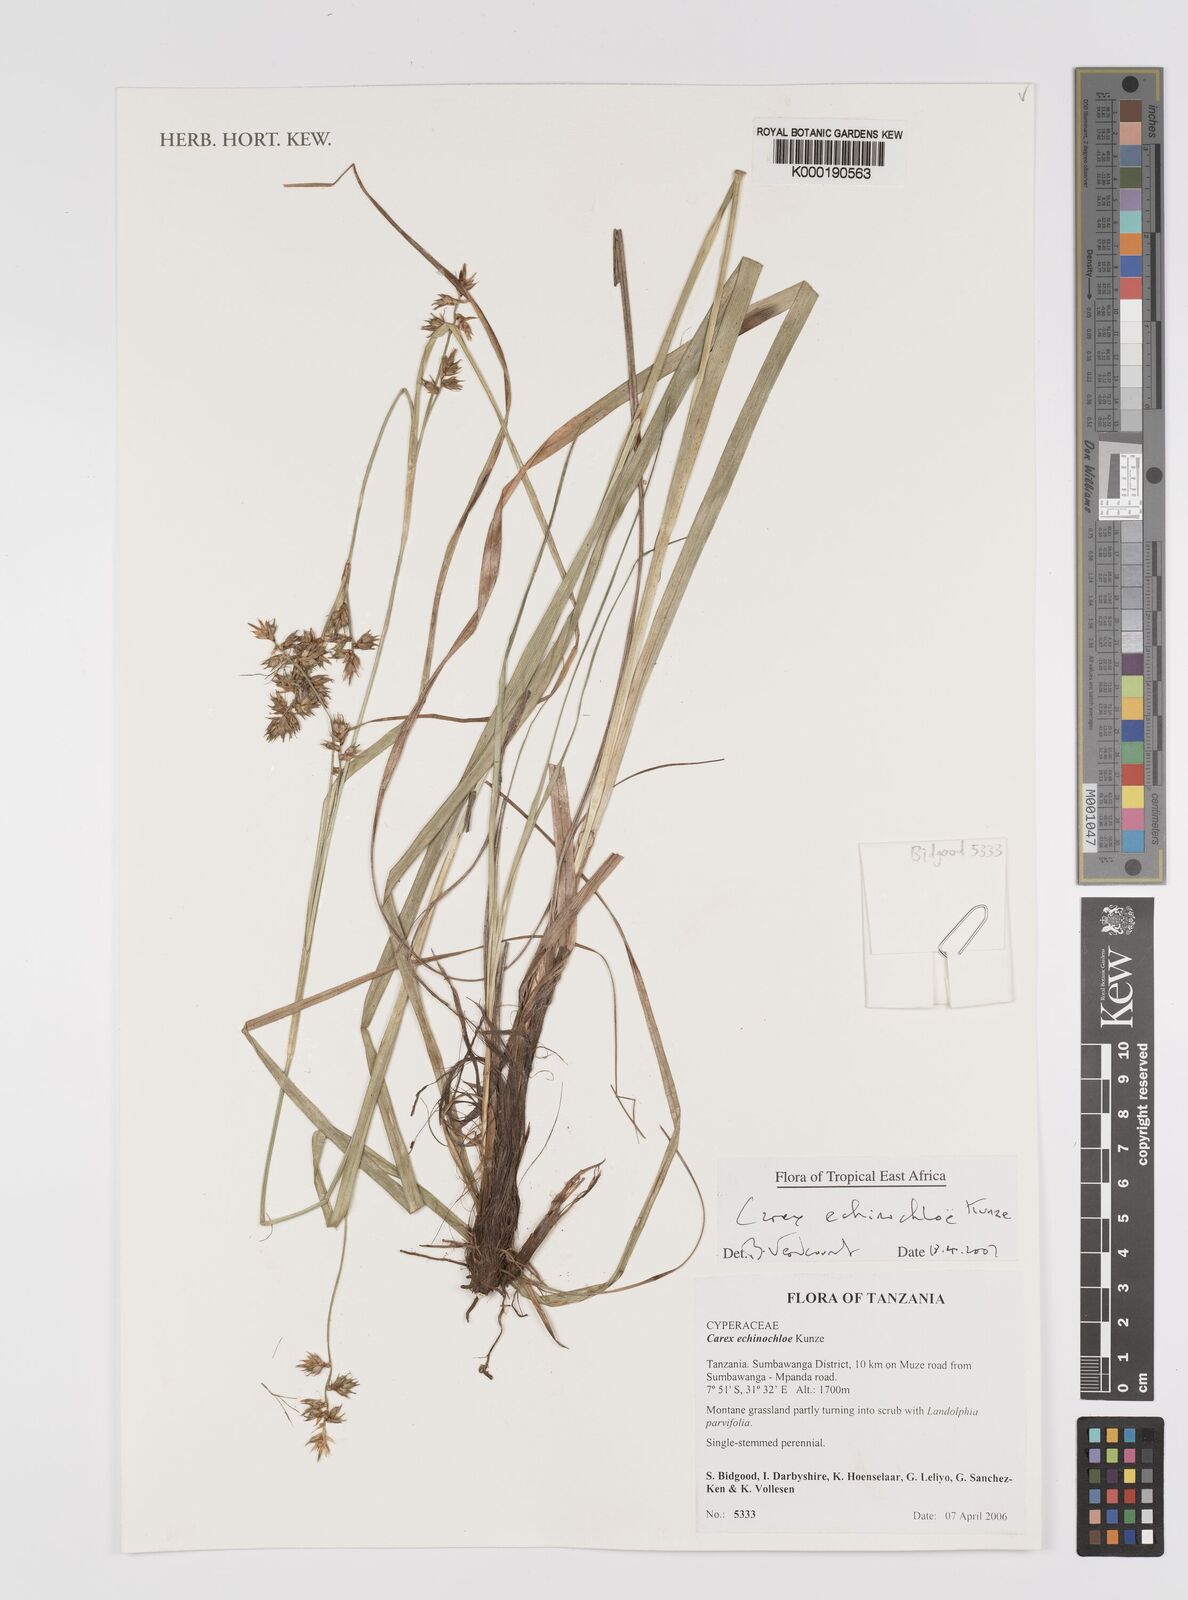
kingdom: Plantae
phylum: Tracheophyta
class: Liliopsida
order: Poales
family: Cyperaceae
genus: Carex
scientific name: Carex echinochloe
